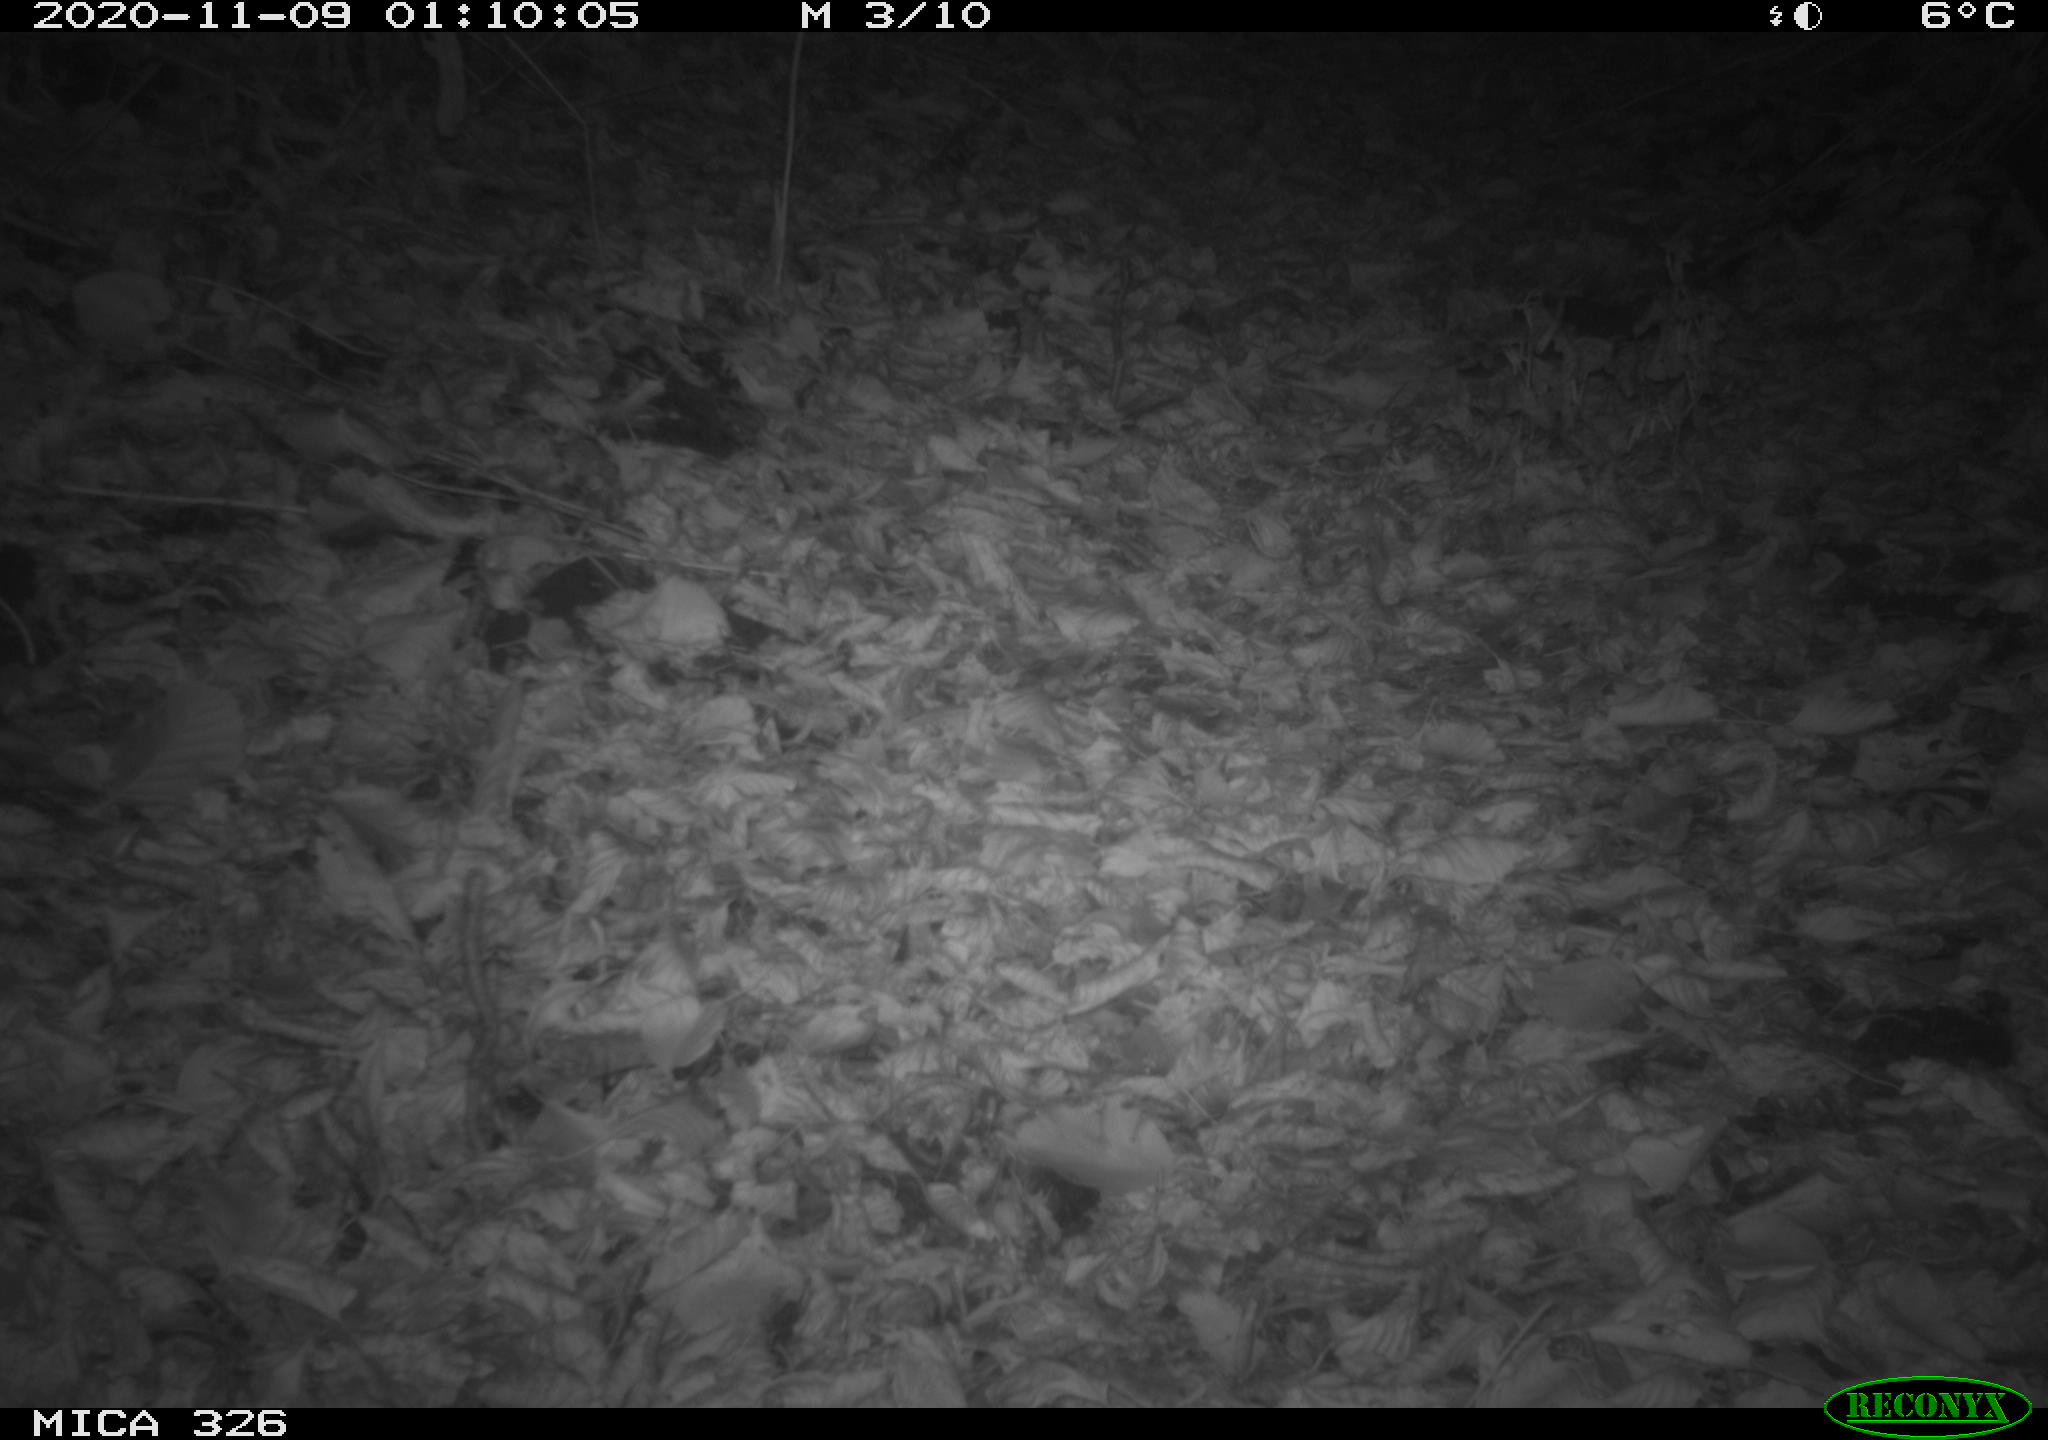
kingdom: Animalia
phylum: Chordata
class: Mammalia
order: Carnivora
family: Mustelidae
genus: Lutra
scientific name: Lutra lutra
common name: European otter
